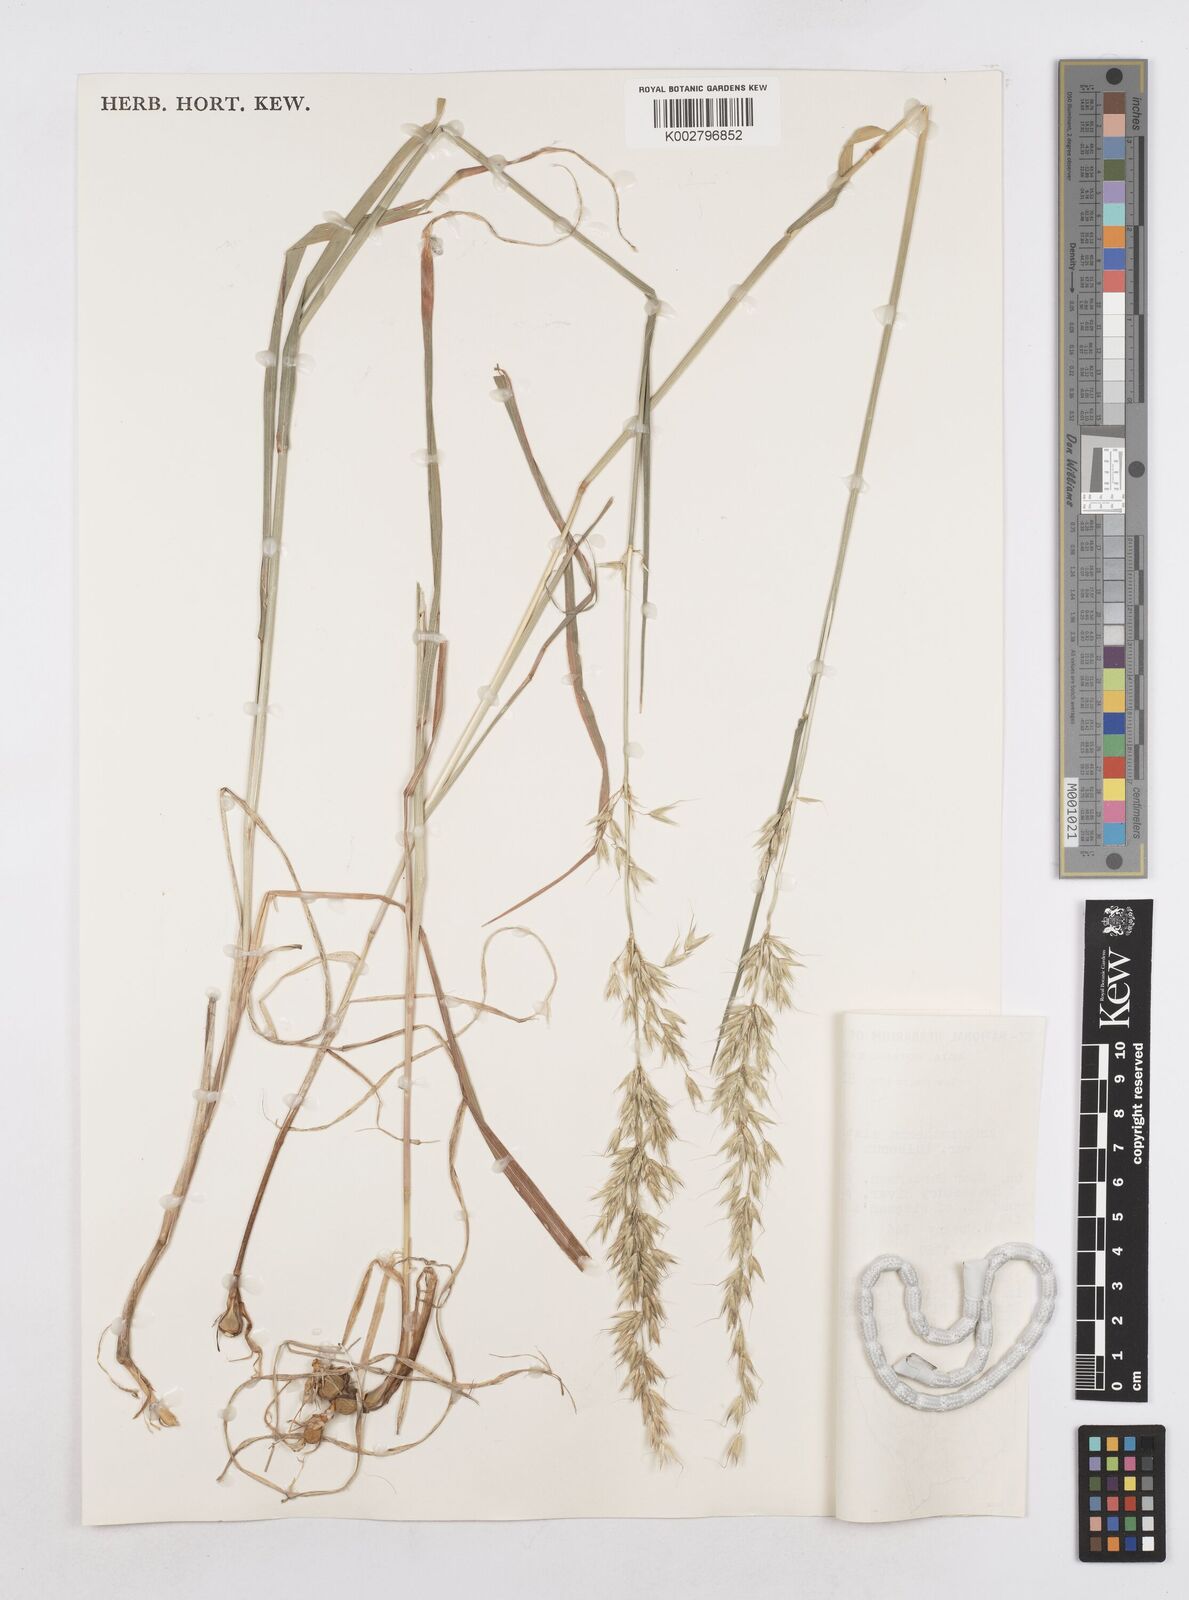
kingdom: Plantae
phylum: Tracheophyta
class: Liliopsida
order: Poales
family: Poaceae
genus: Arrhenatherum
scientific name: Arrhenatherum elatius
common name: Tall oatgrass
